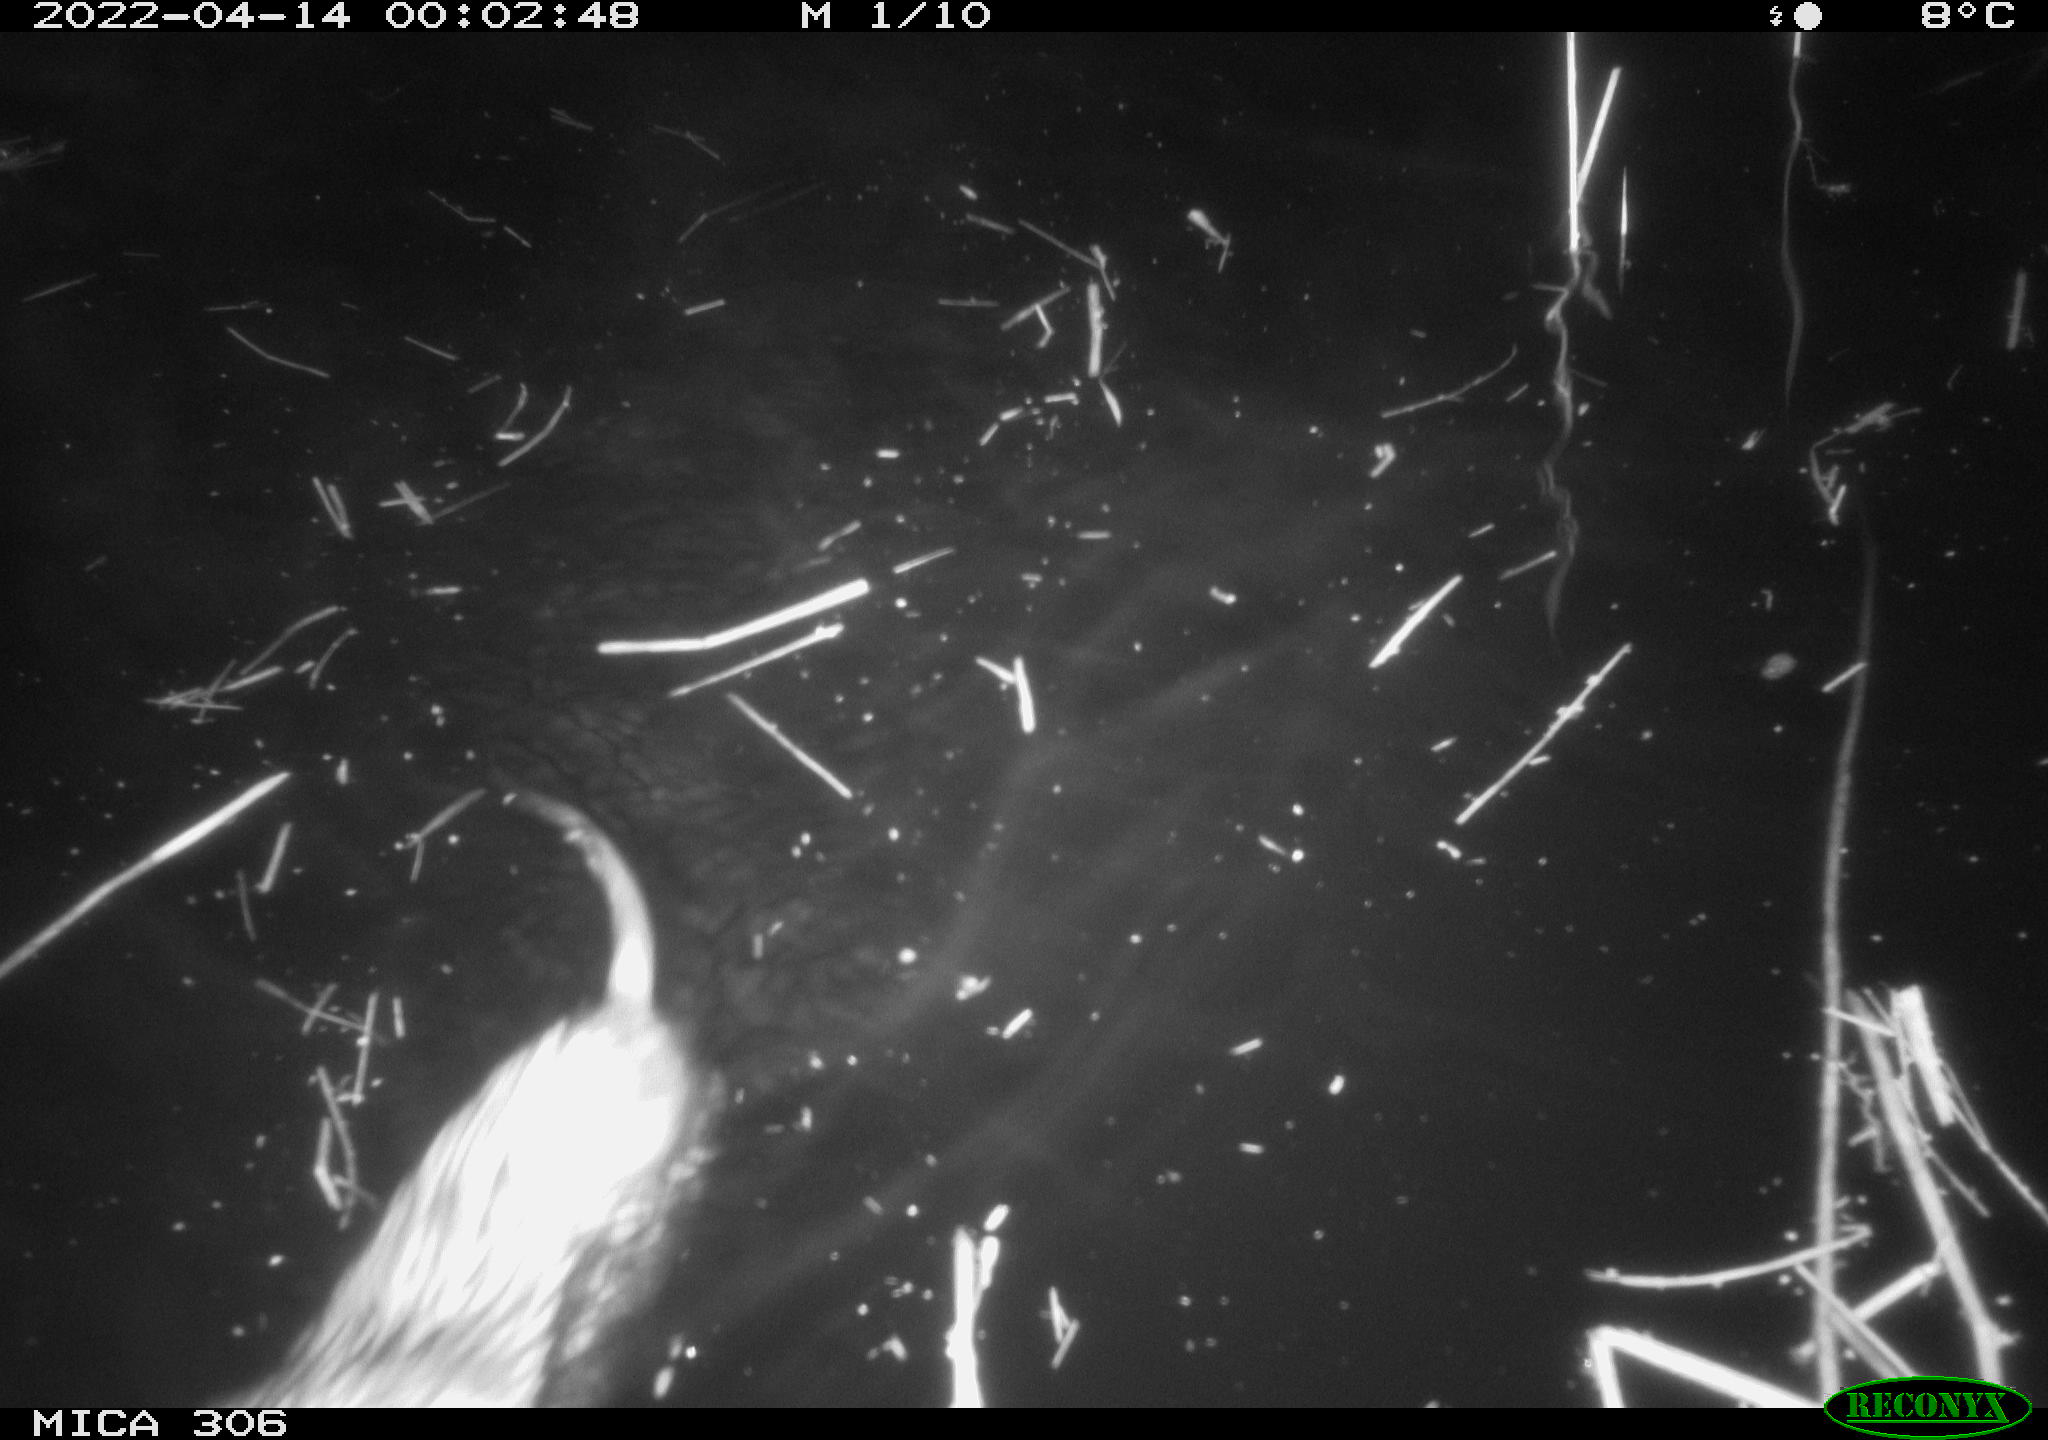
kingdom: Animalia
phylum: Chordata
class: Mammalia
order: Rodentia
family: Cricetidae
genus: Ondatra
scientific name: Ondatra zibethicus
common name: Muskrat
